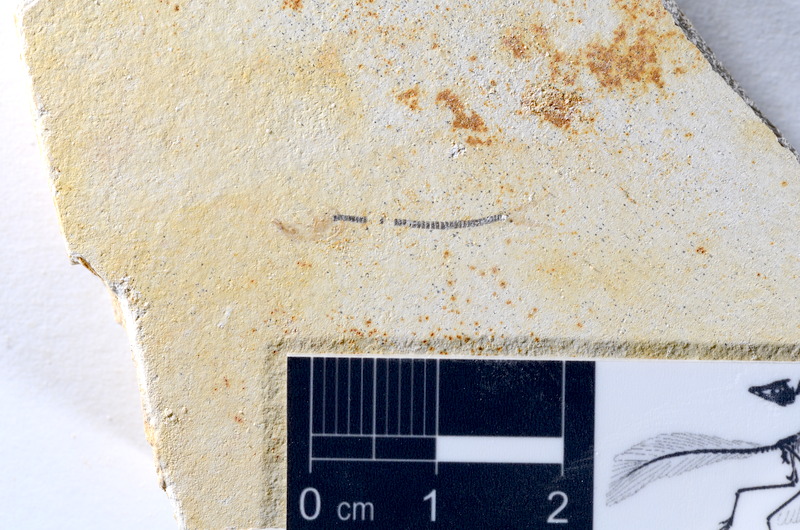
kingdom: Animalia
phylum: Chordata
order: Salmoniformes
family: Orthogonikleithridae
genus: Orthogonikleithrus
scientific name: Orthogonikleithrus hoelli
